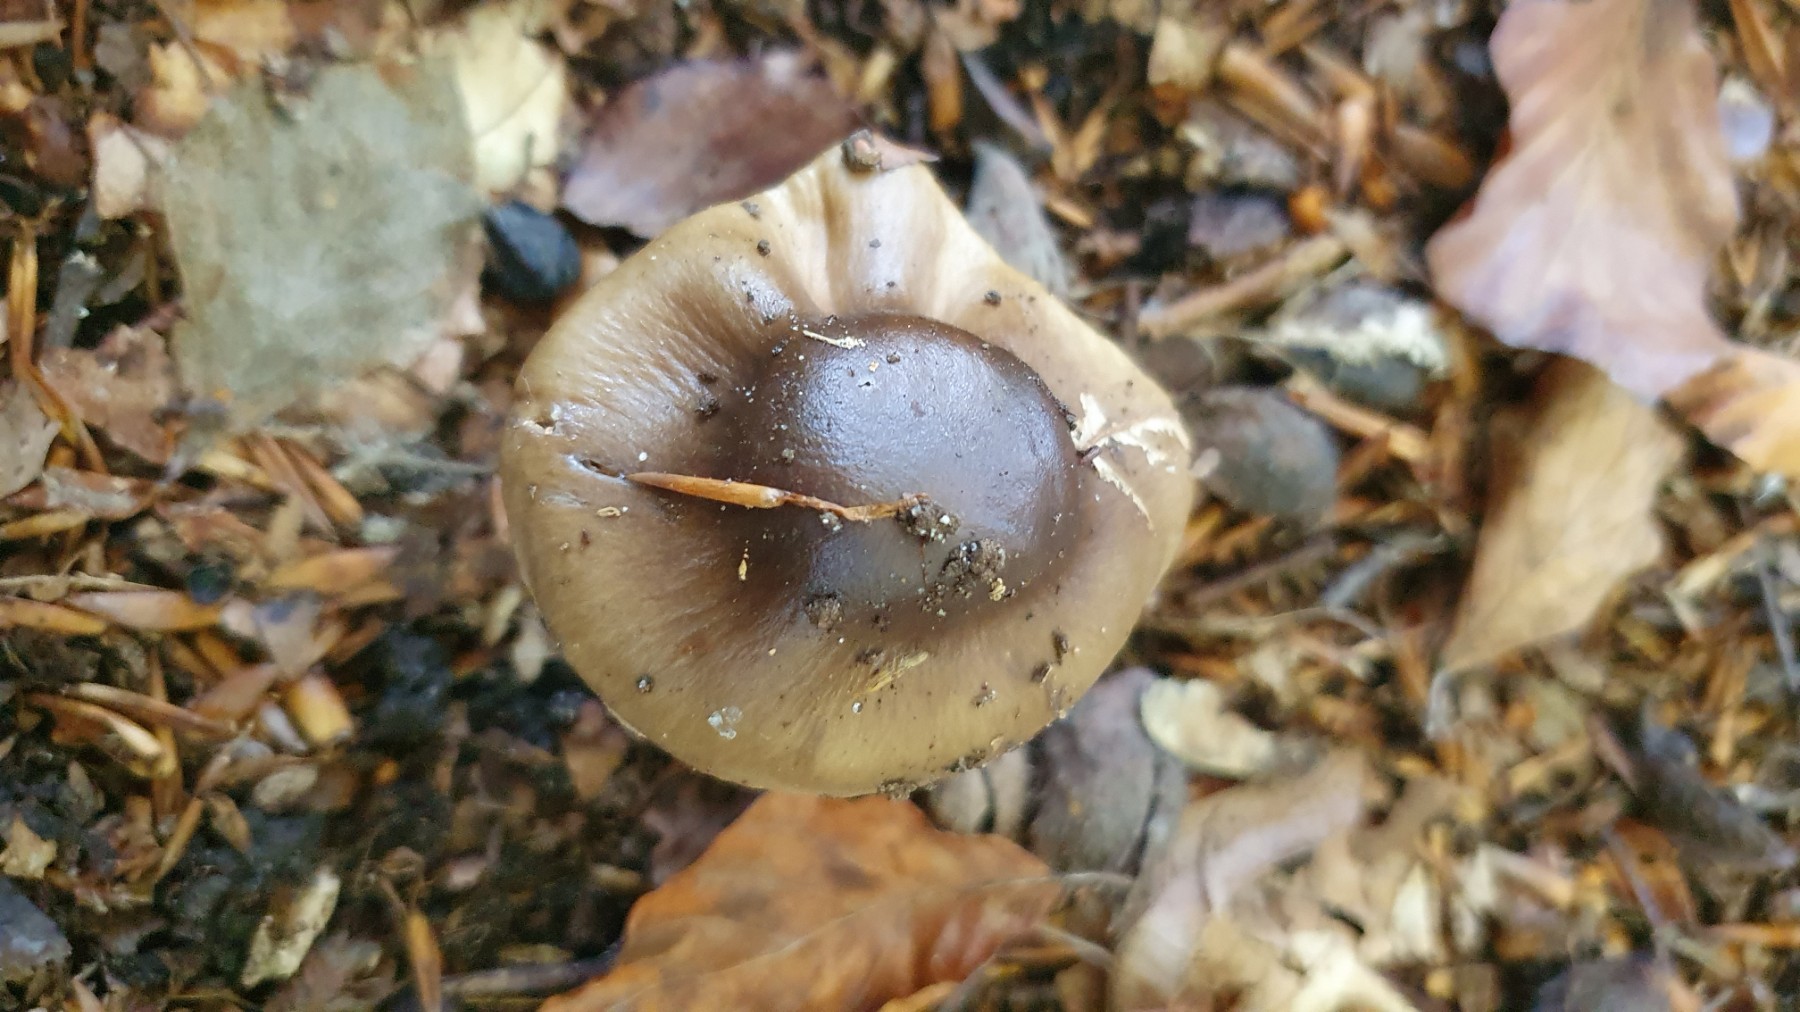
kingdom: Fungi
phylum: Basidiomycota
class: Agaricomycetes
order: Agaricales
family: Cortinariaceae
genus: Cortinarius
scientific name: Cortinarius elatior
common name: høj slørhat
